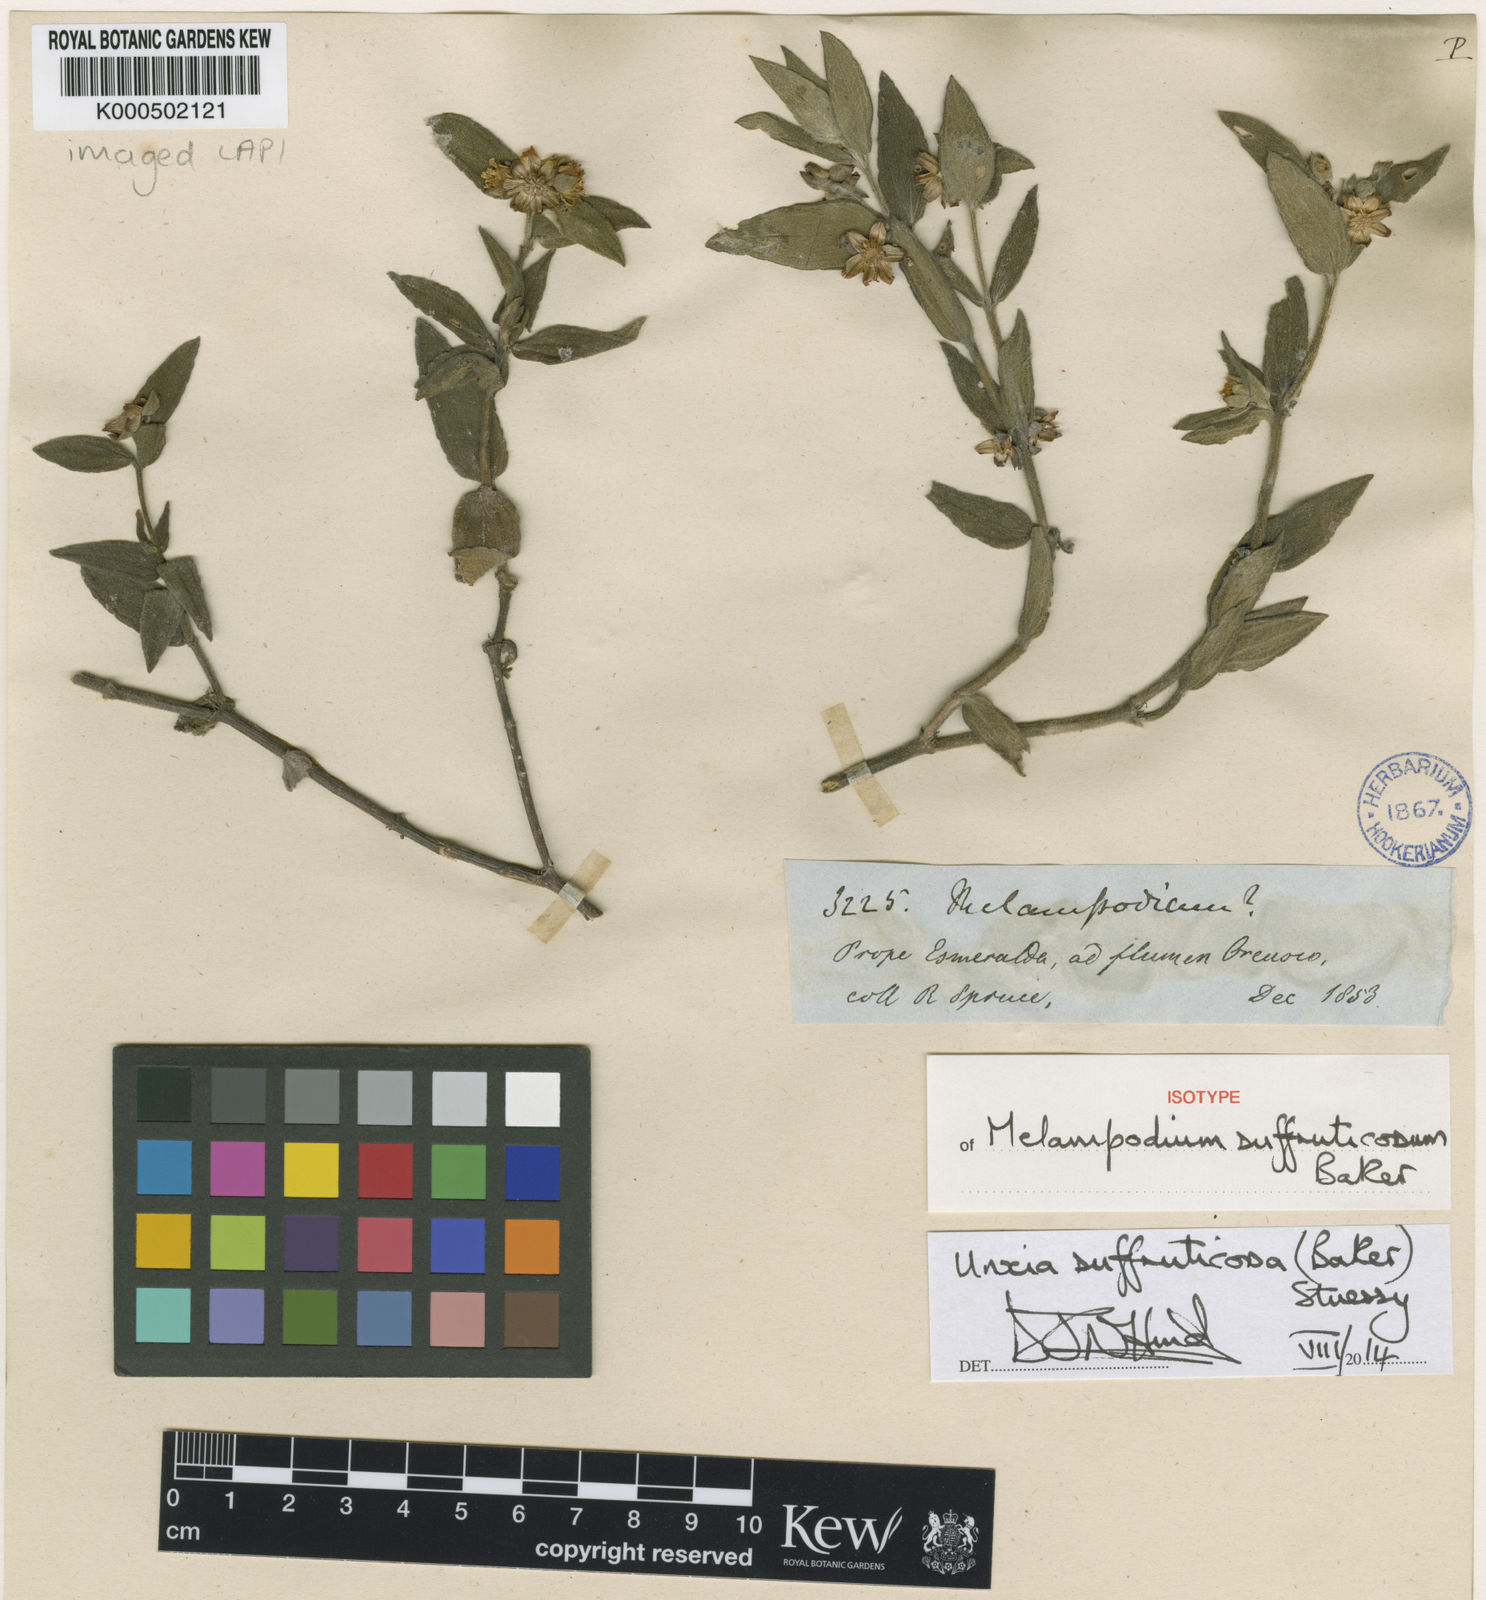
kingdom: Plantae
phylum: Tracheophyta
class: Magnoliopsida
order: Asterales
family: Asteraceae
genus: Unxia
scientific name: Unxia suffruticosa
